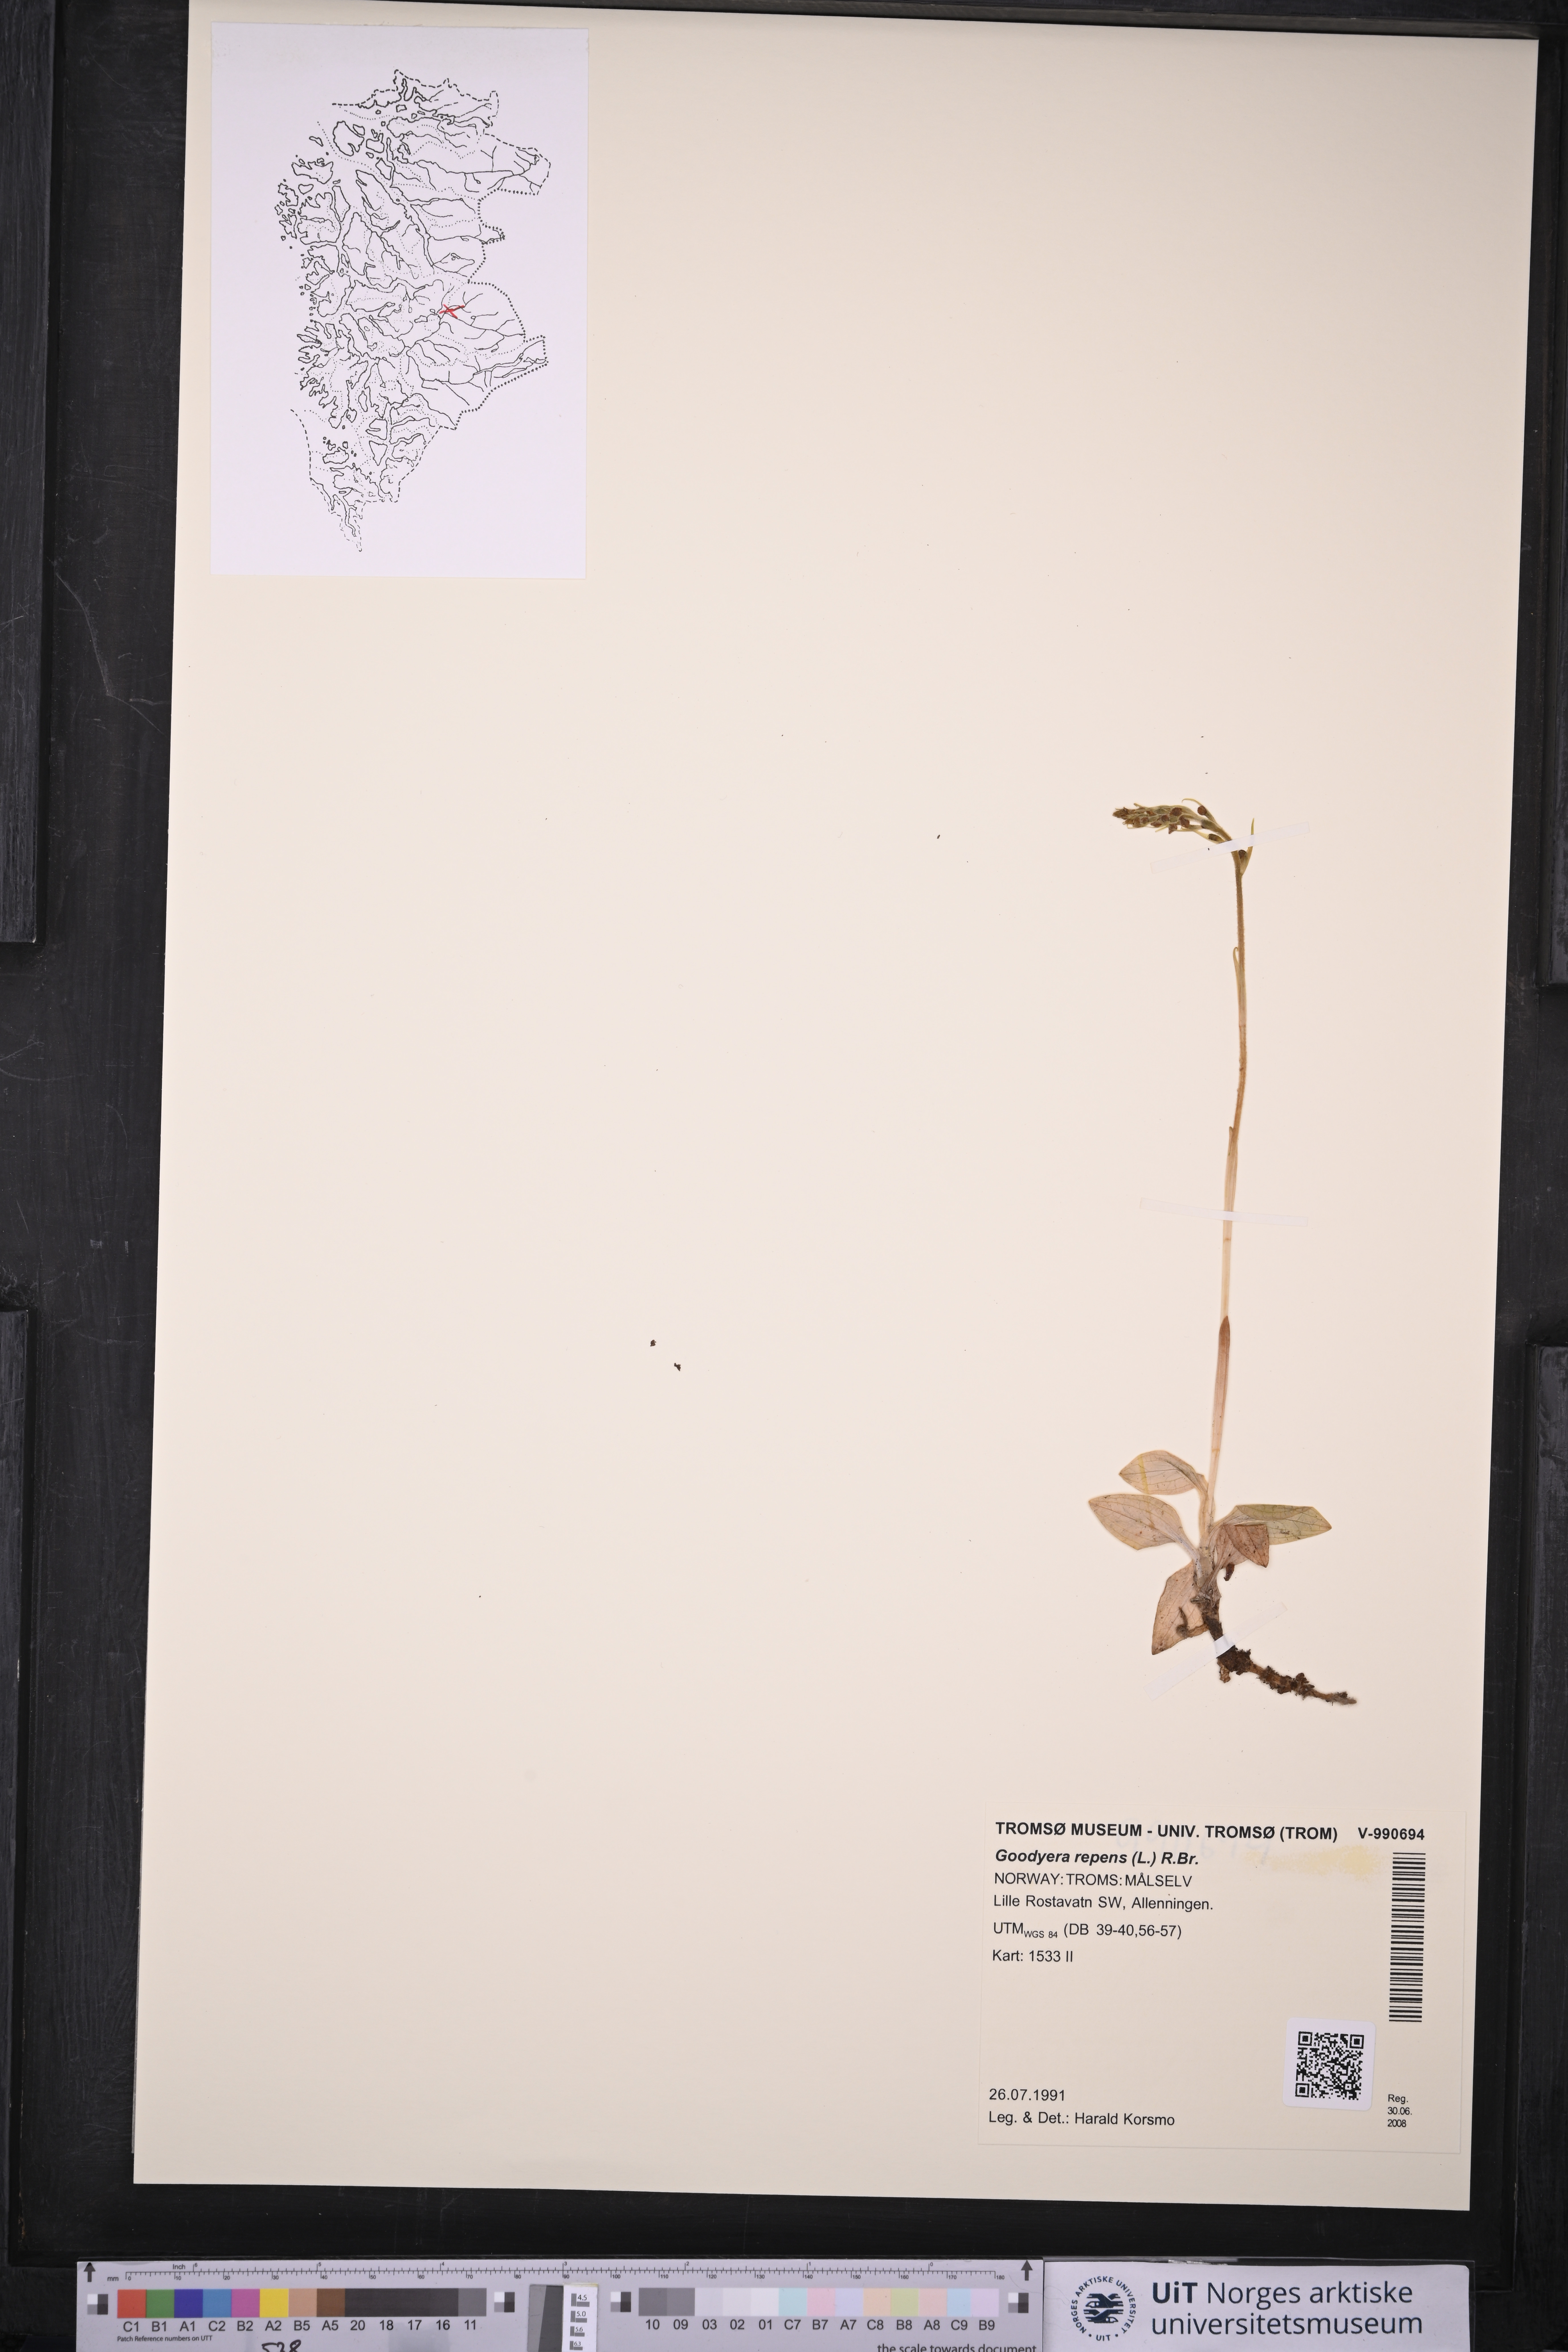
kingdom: Plantae
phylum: Tracheophyta
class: Liliopsida
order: Asparagales
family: Orchidaceae
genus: Goodyera
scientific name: Goodyera repens
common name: Creeping lady's-tresses
